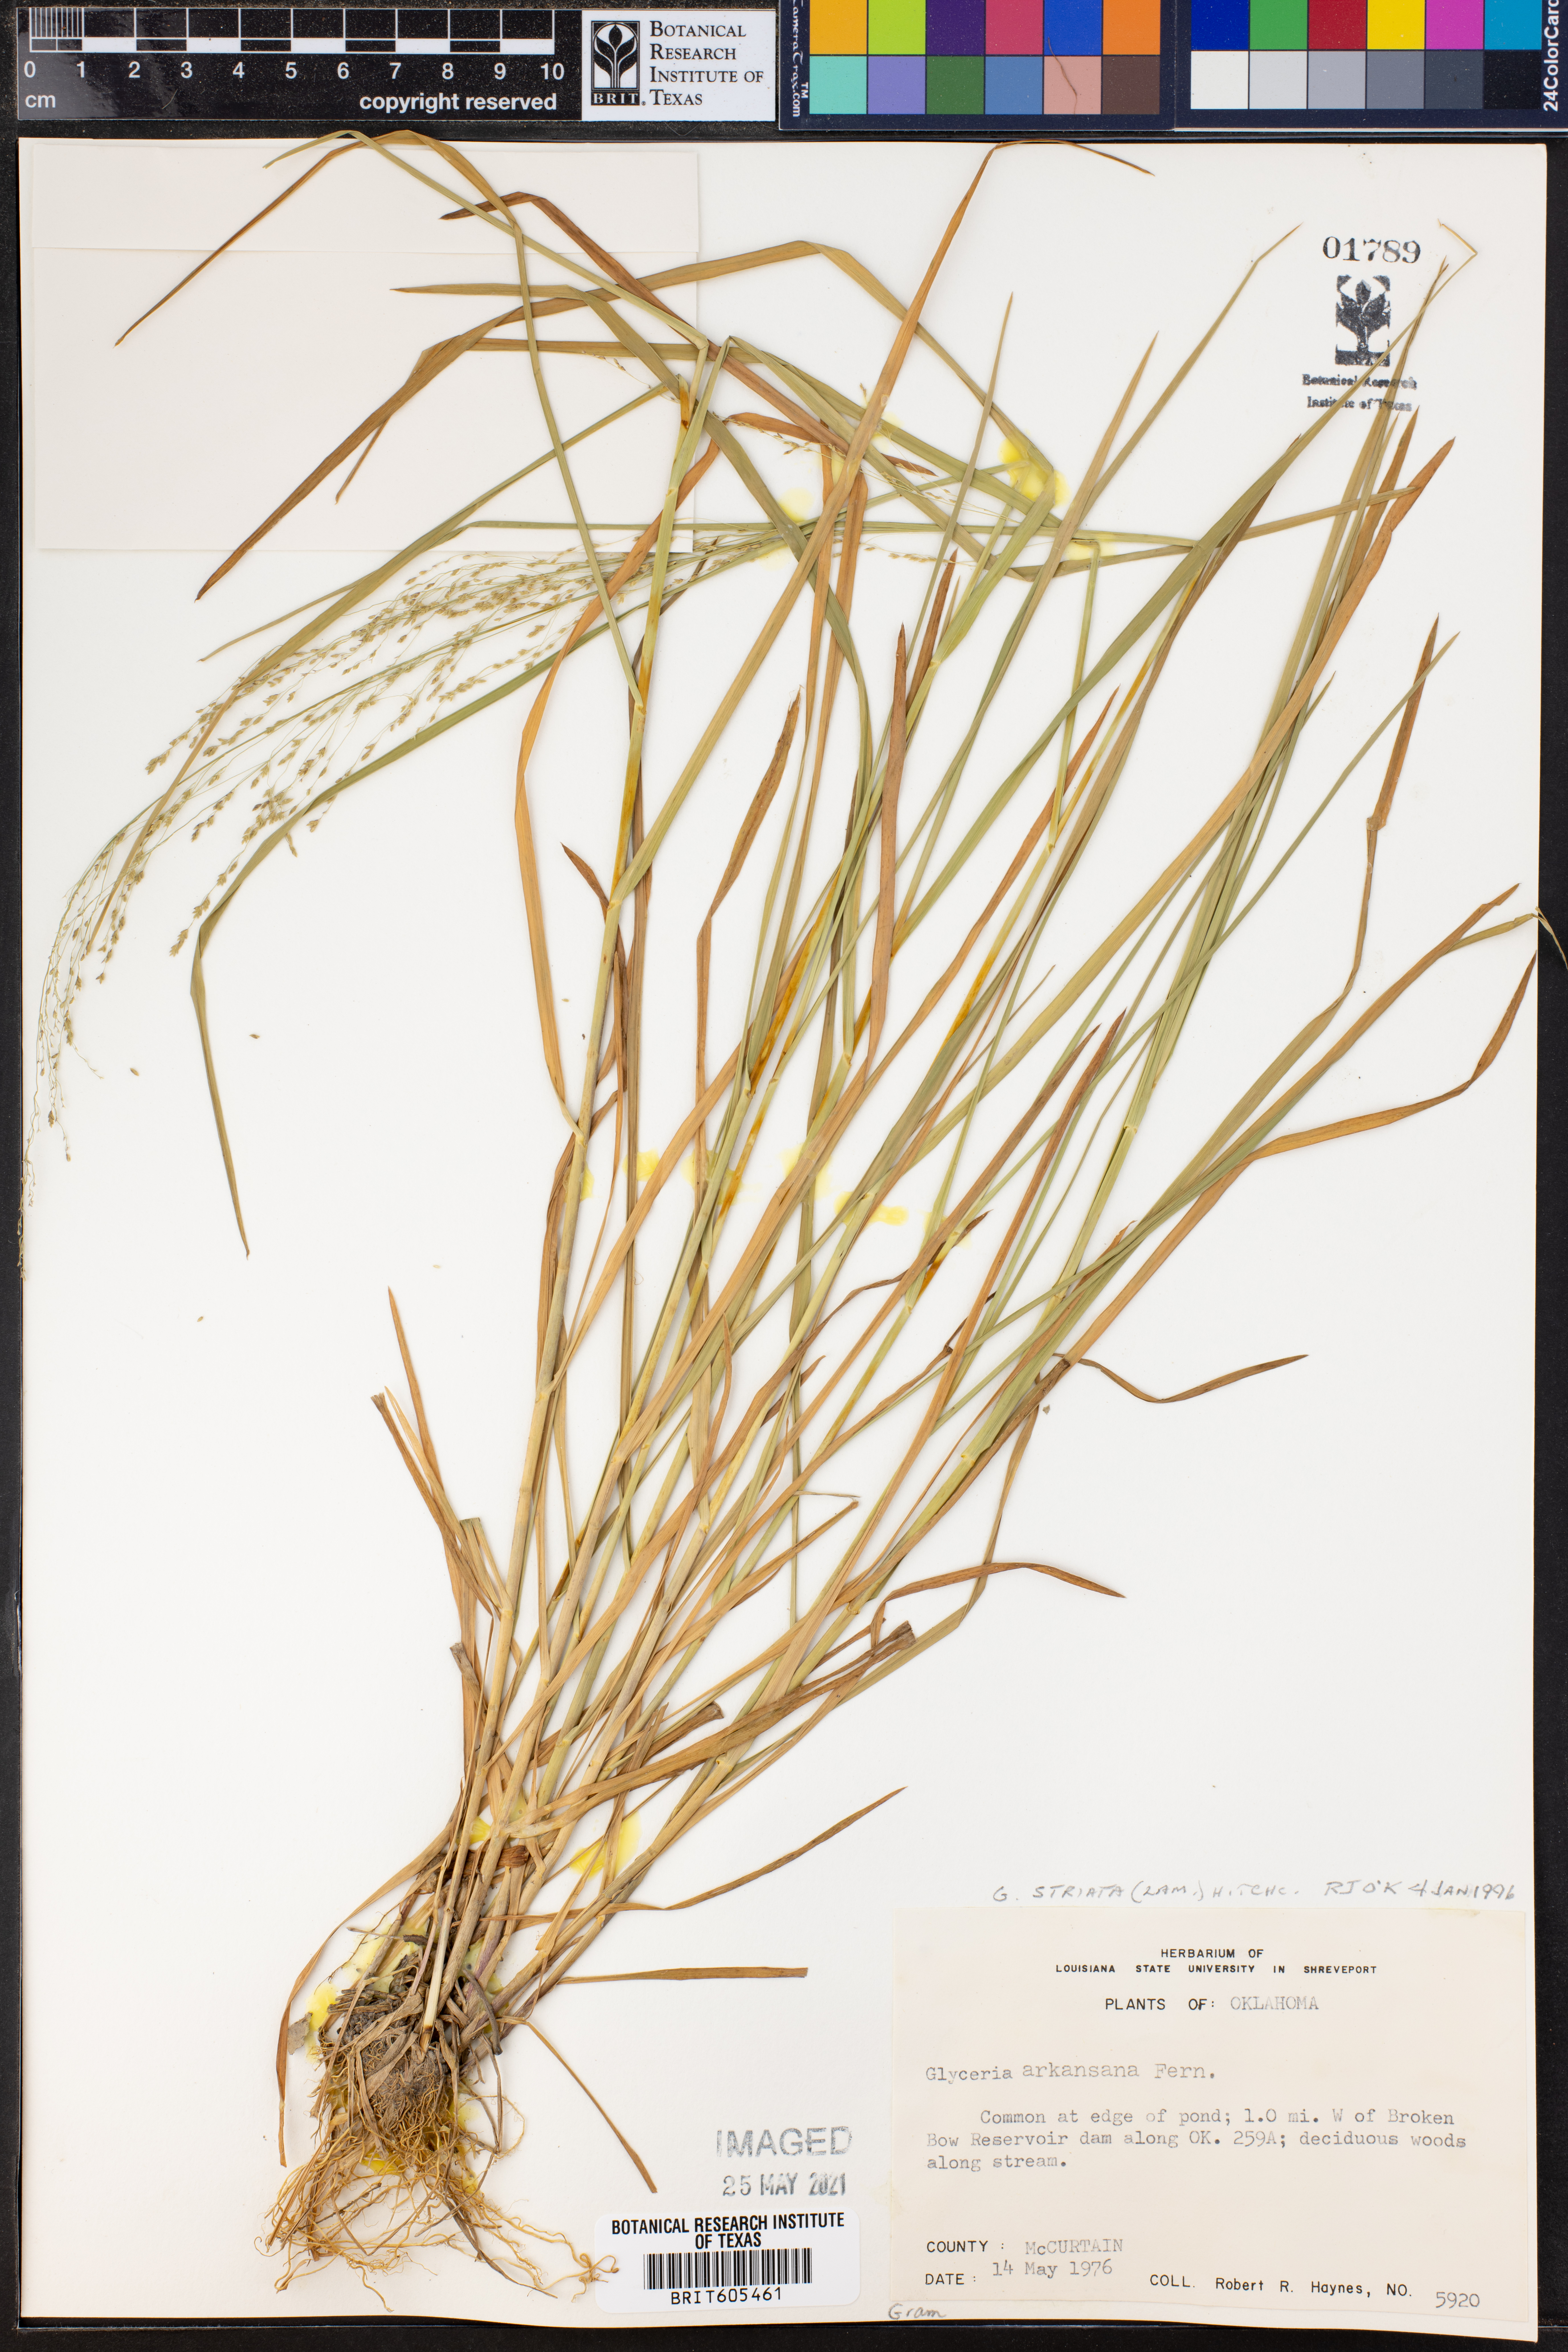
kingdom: Plantae
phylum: Tracheophyta
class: Liliopsida
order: Poales
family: Poaceae
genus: Glyceria
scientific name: Glyceria striata
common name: Fowl manna grass
